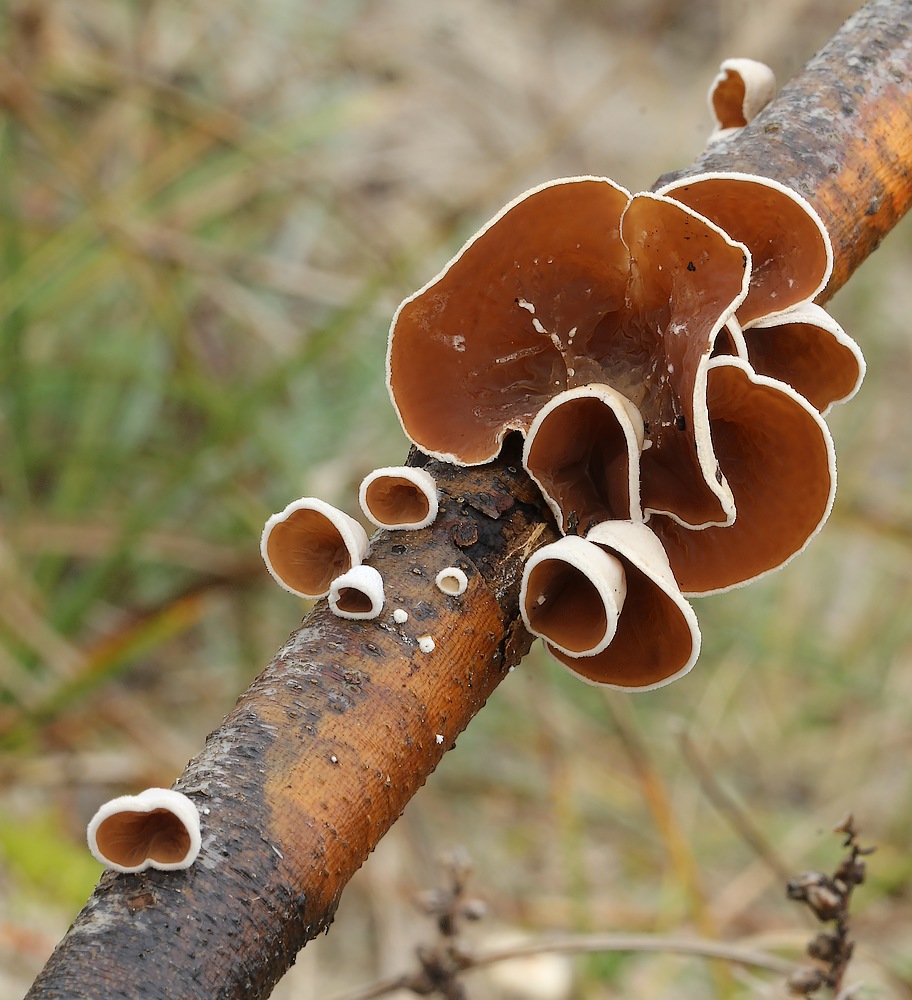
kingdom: Fungi
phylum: Basidiomycota
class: Agaricomycetes
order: Agaricales
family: Schizophyllaceae
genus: Schizophyllum
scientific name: Schizophyllum amplum
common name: poppel-hængeøre
